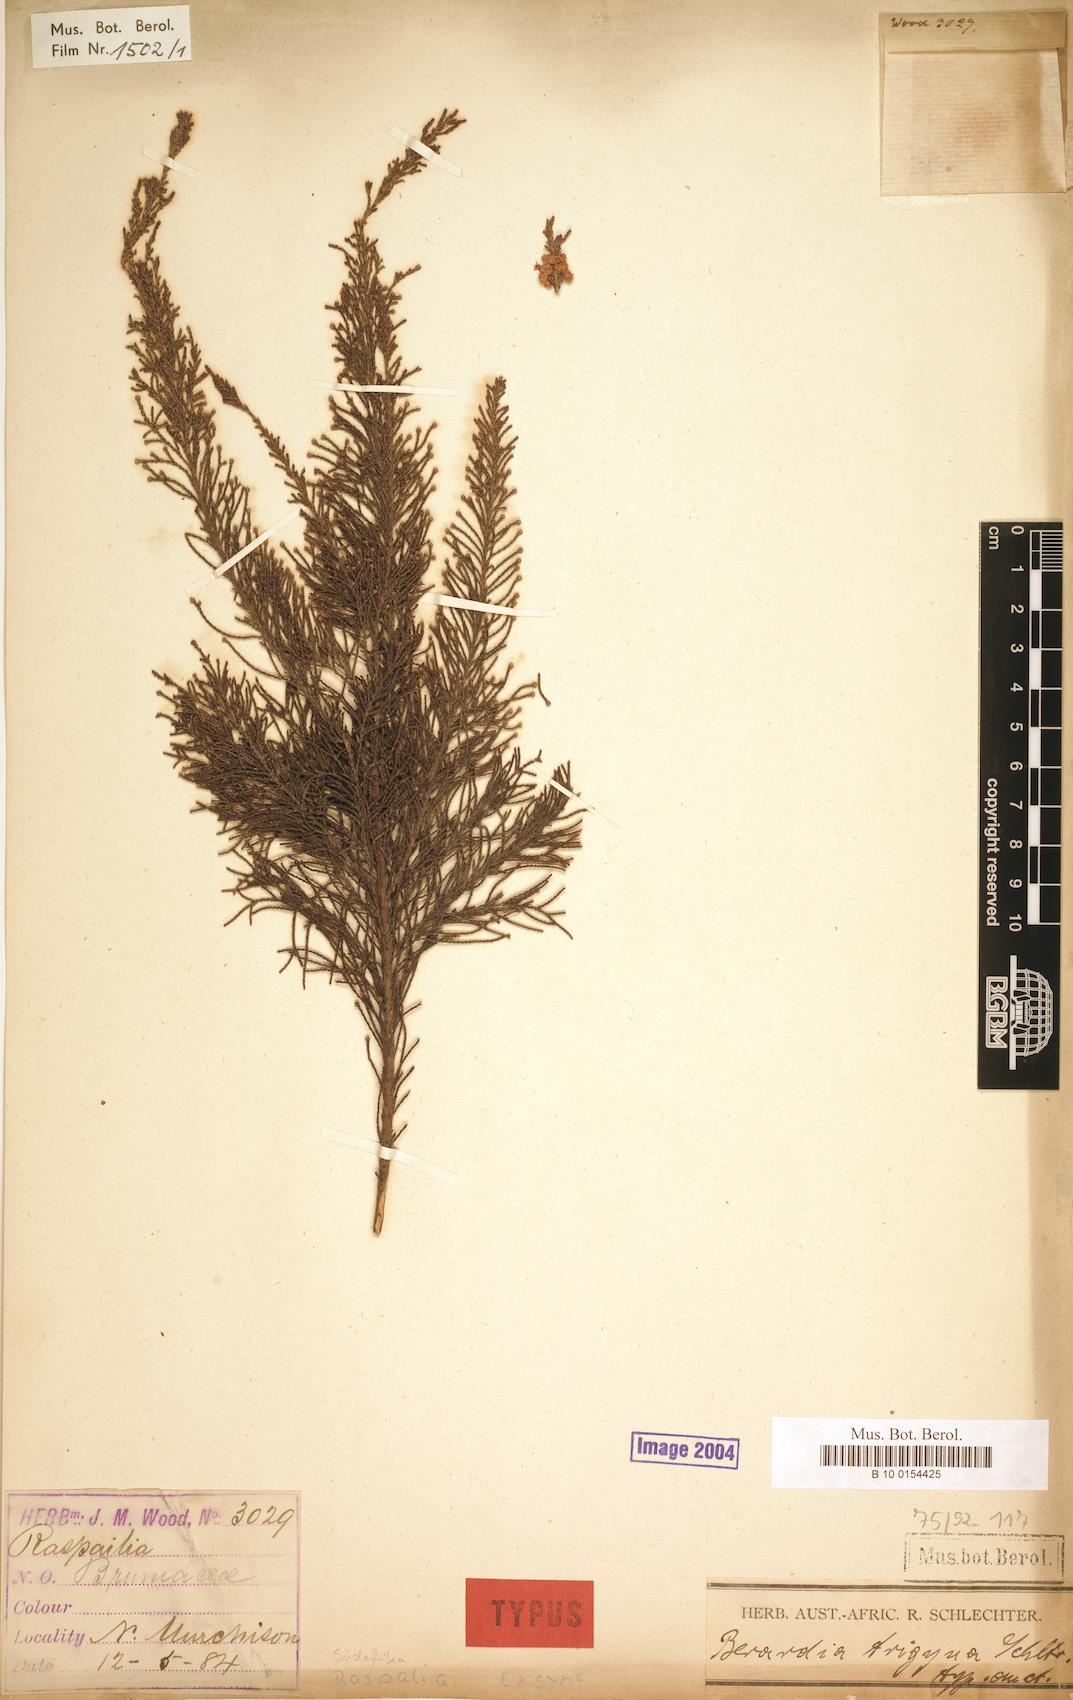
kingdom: Plantae
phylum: Tracheophyta
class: Magnoliopsida
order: Bruniales
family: Bruniaceae
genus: Brunia
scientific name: Brunia trigyna
